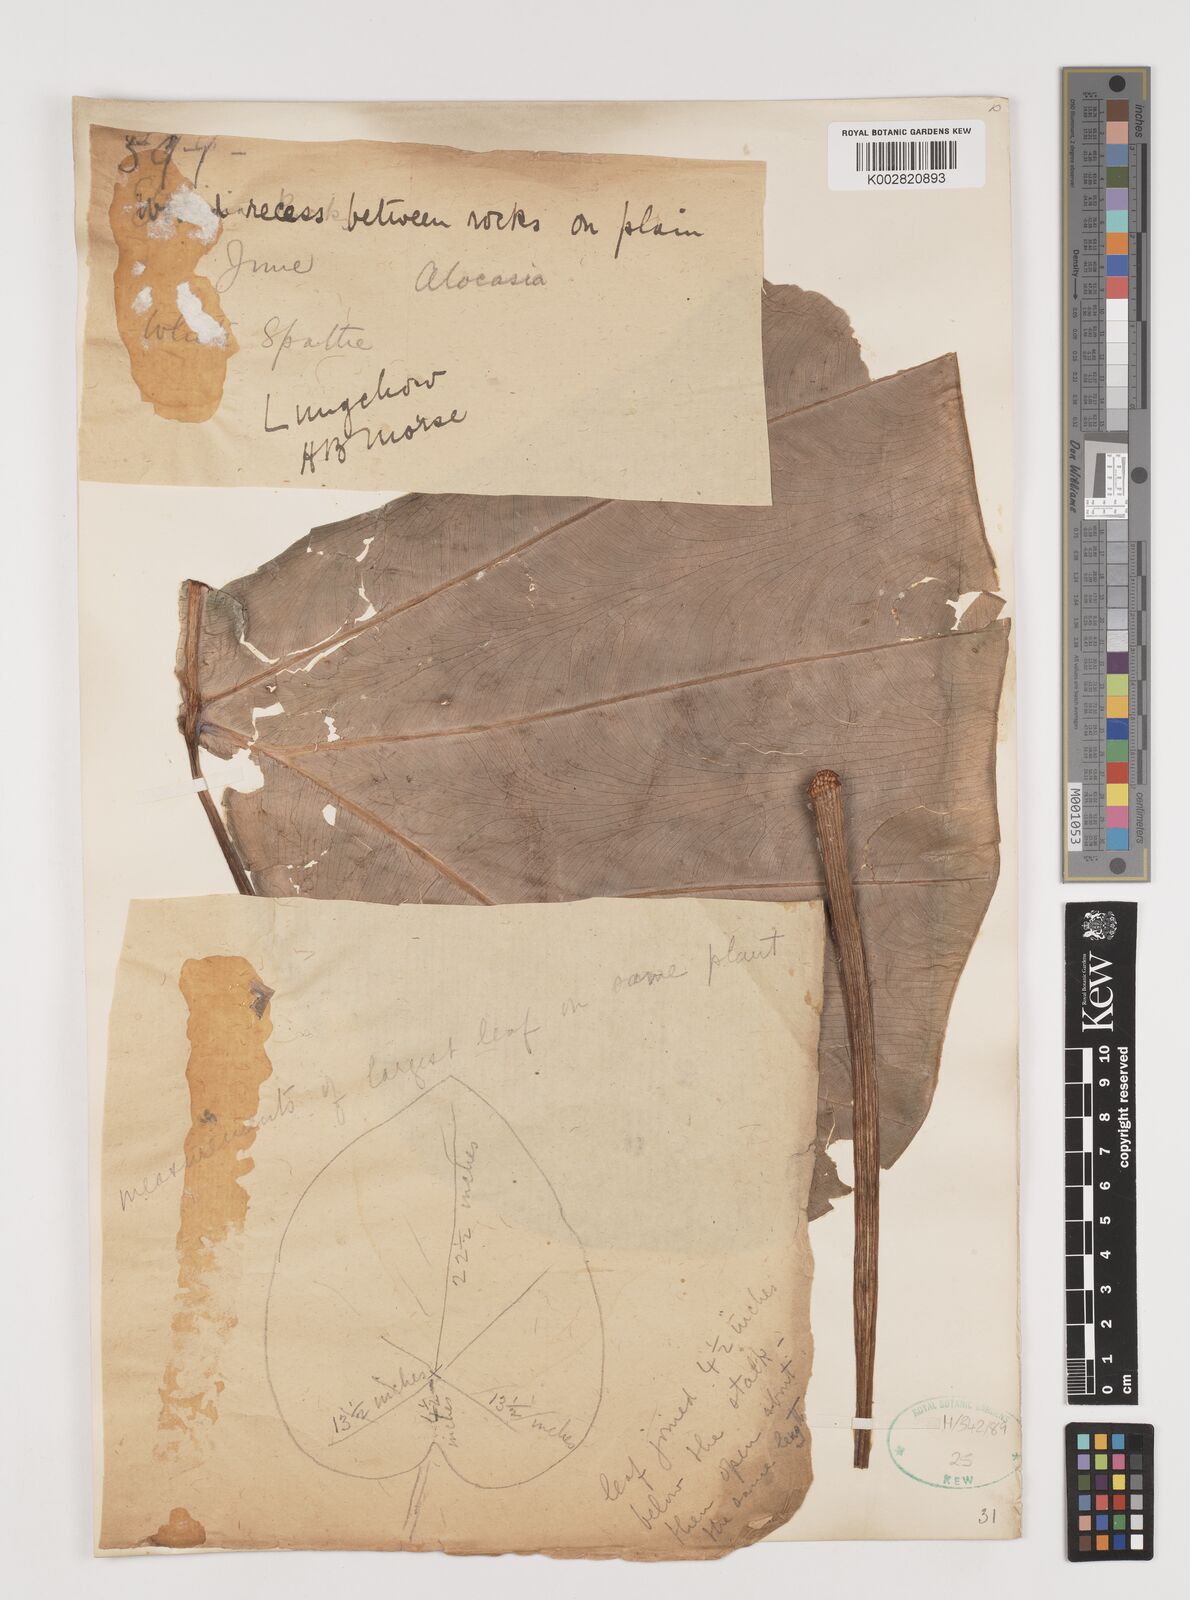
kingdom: Plantae
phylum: Tracheophyta
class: Liliopsida
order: Alismatales
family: Araceae
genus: Alocasia
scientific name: Alocasia
